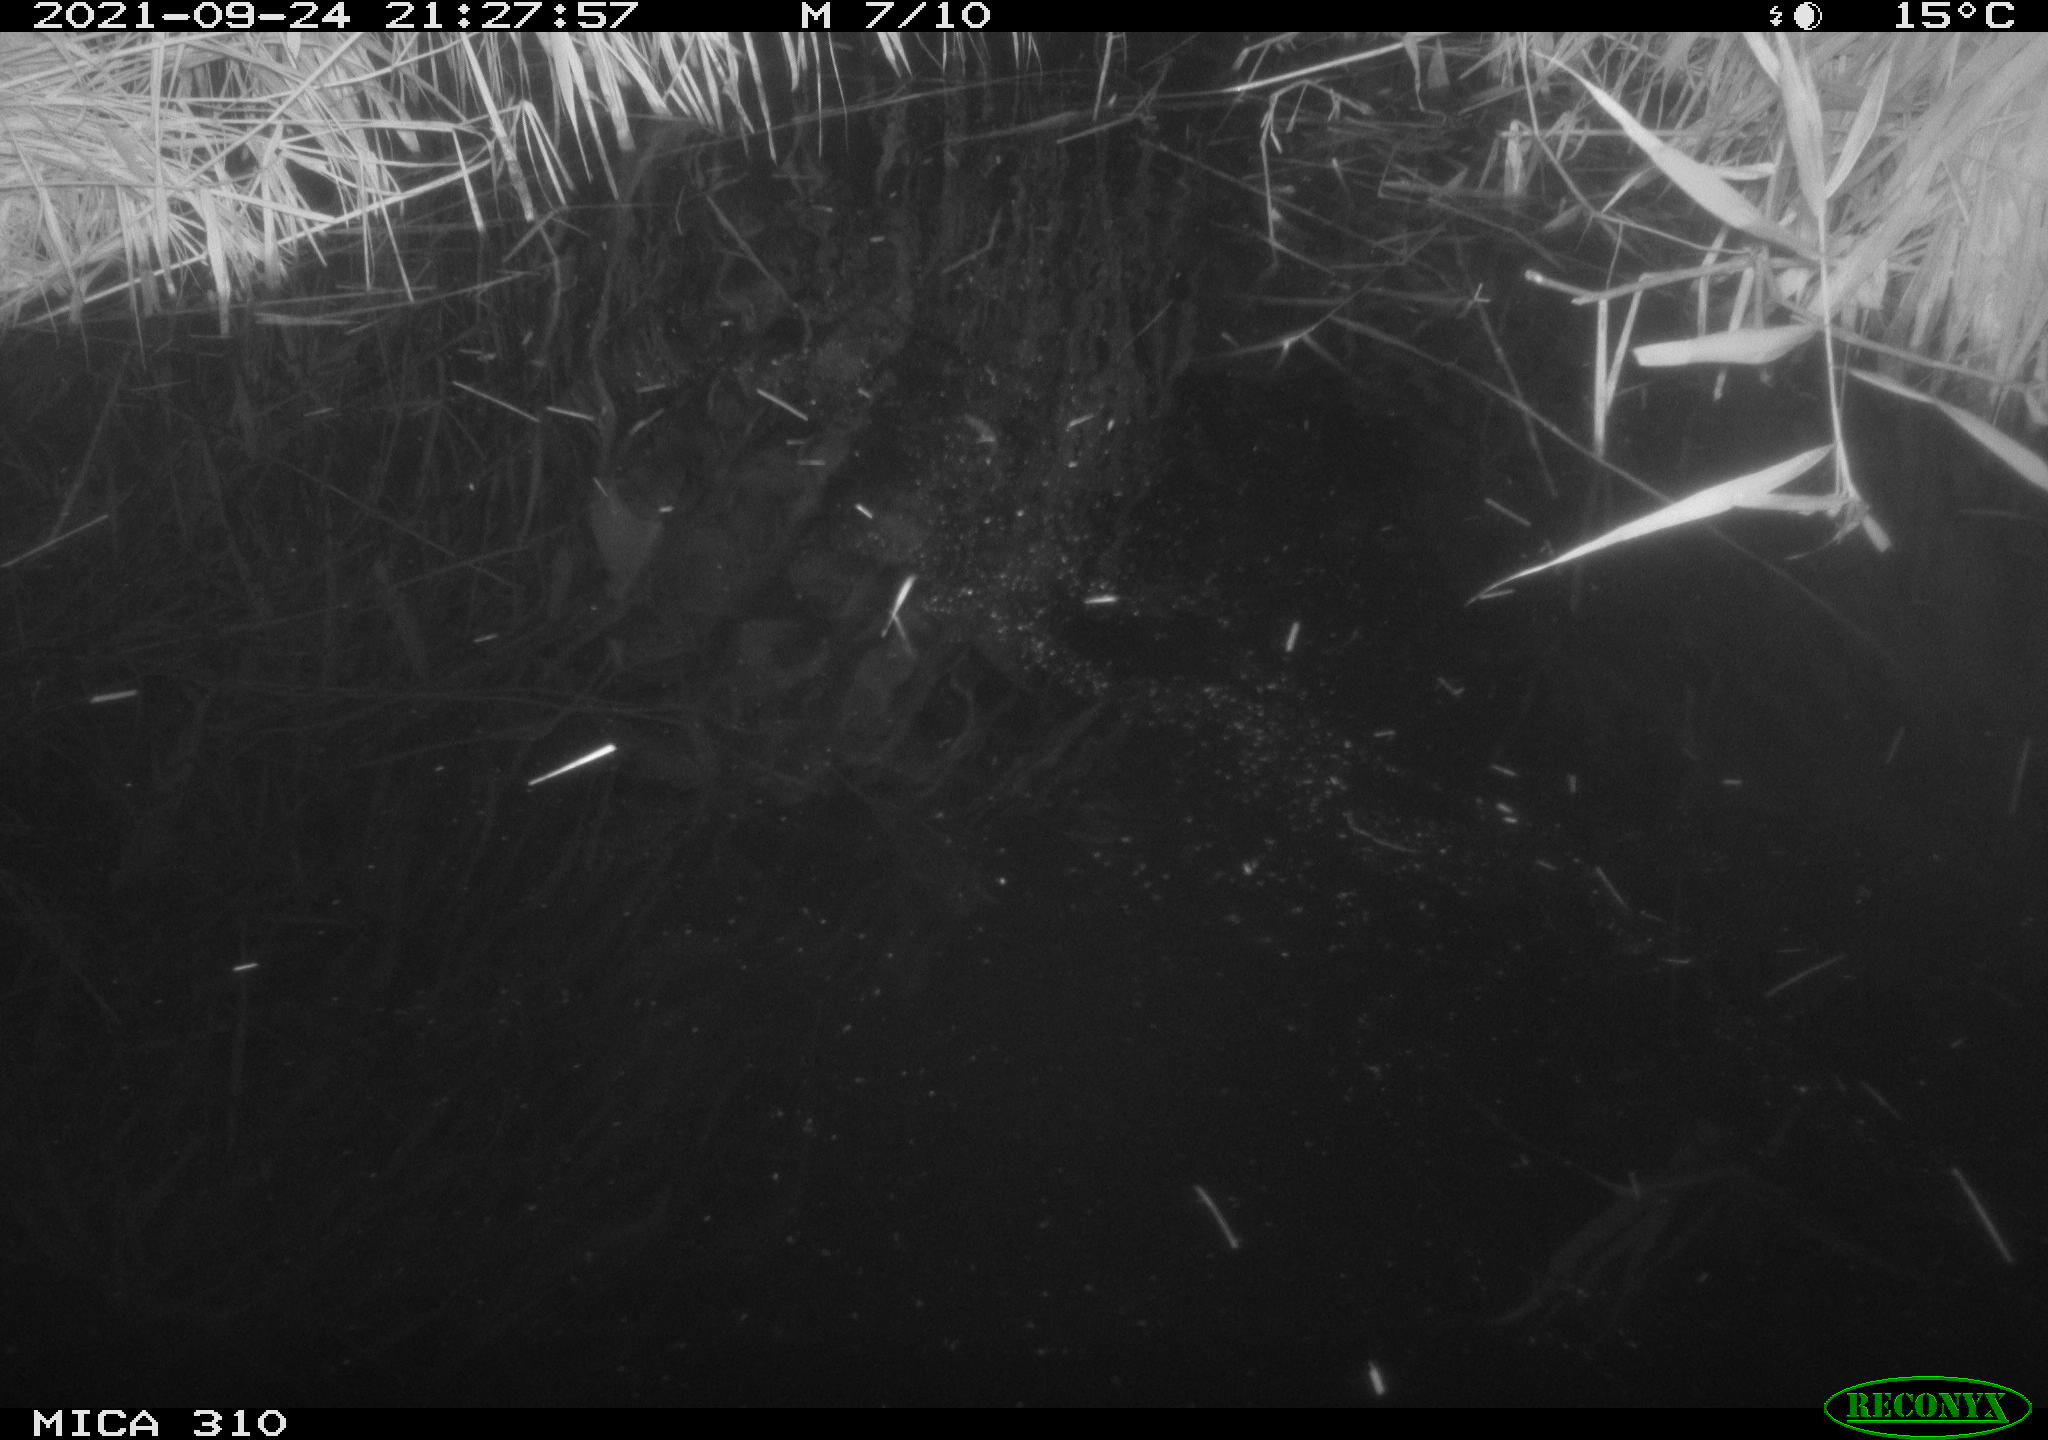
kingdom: Animalia
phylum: Chordata
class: Mammalia
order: Rodentia
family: Muridae
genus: Rattus
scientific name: Rattus norvegicus
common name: Brown rat
